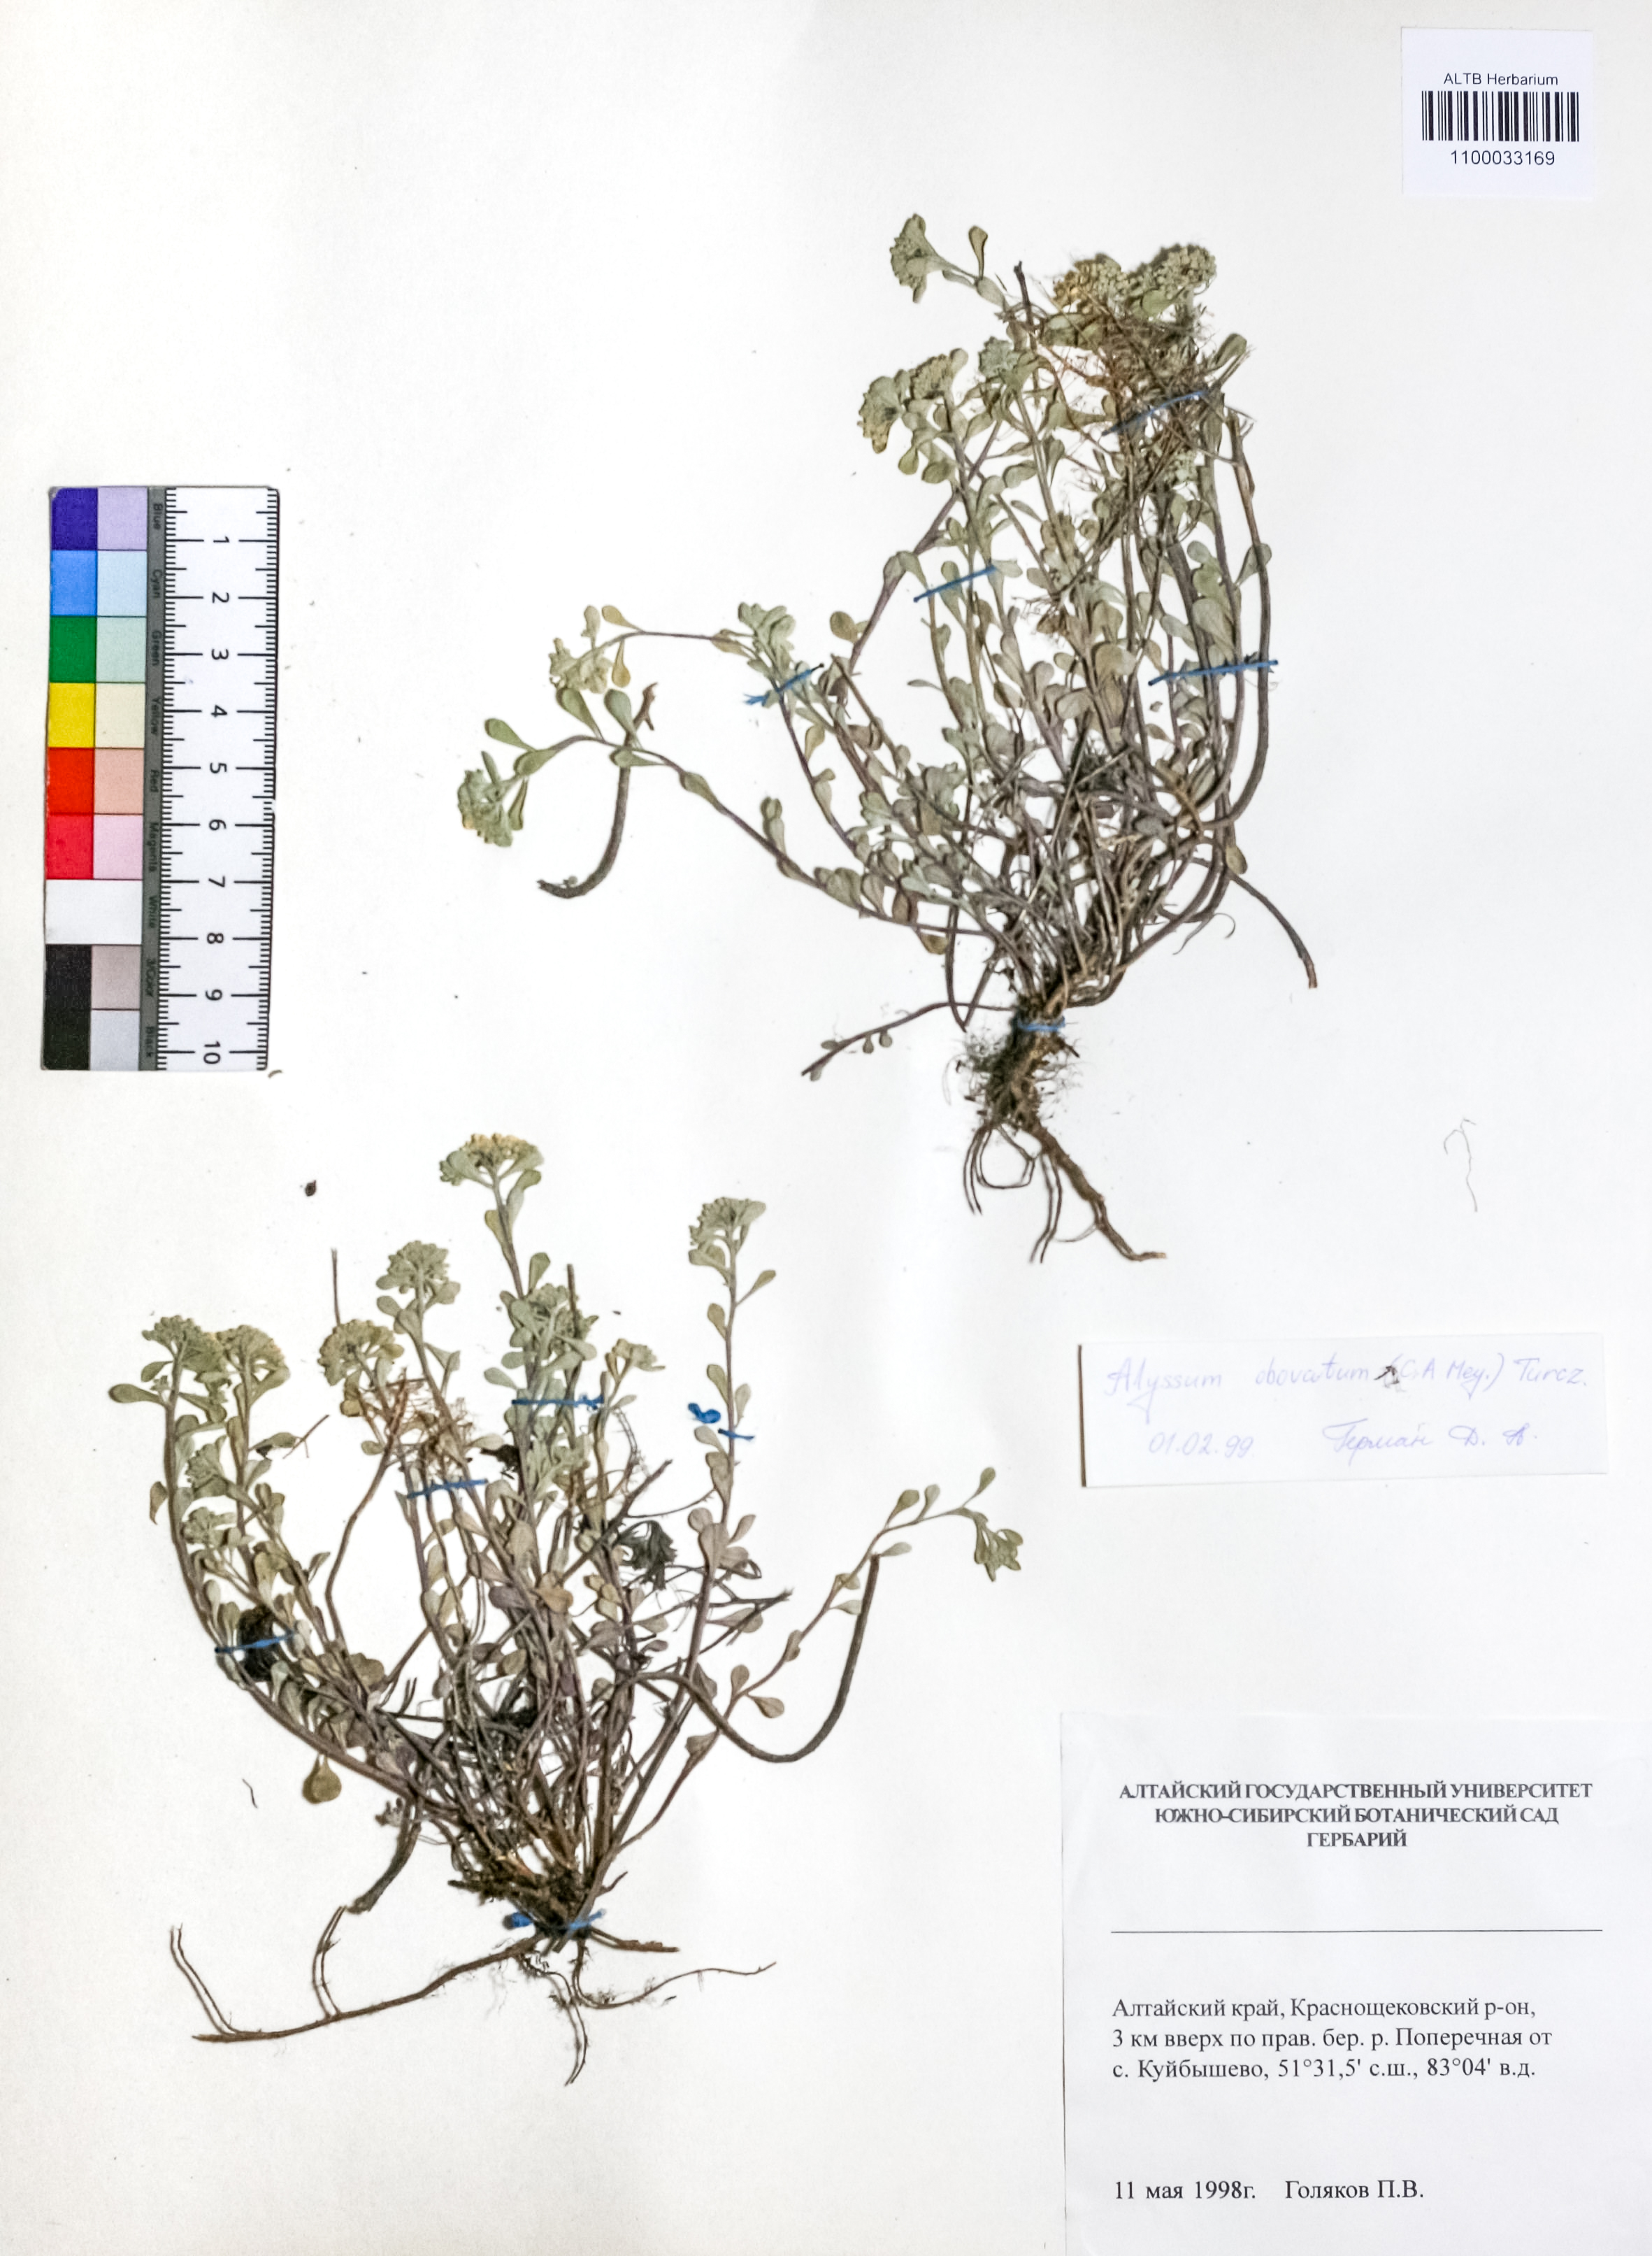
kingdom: Plantae
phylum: Tracheophyta
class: Magnoliopsida
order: Brassicales
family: Brassicaceae
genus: Odontarrhena
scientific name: Odontarrhena obovata
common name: American alyssum
